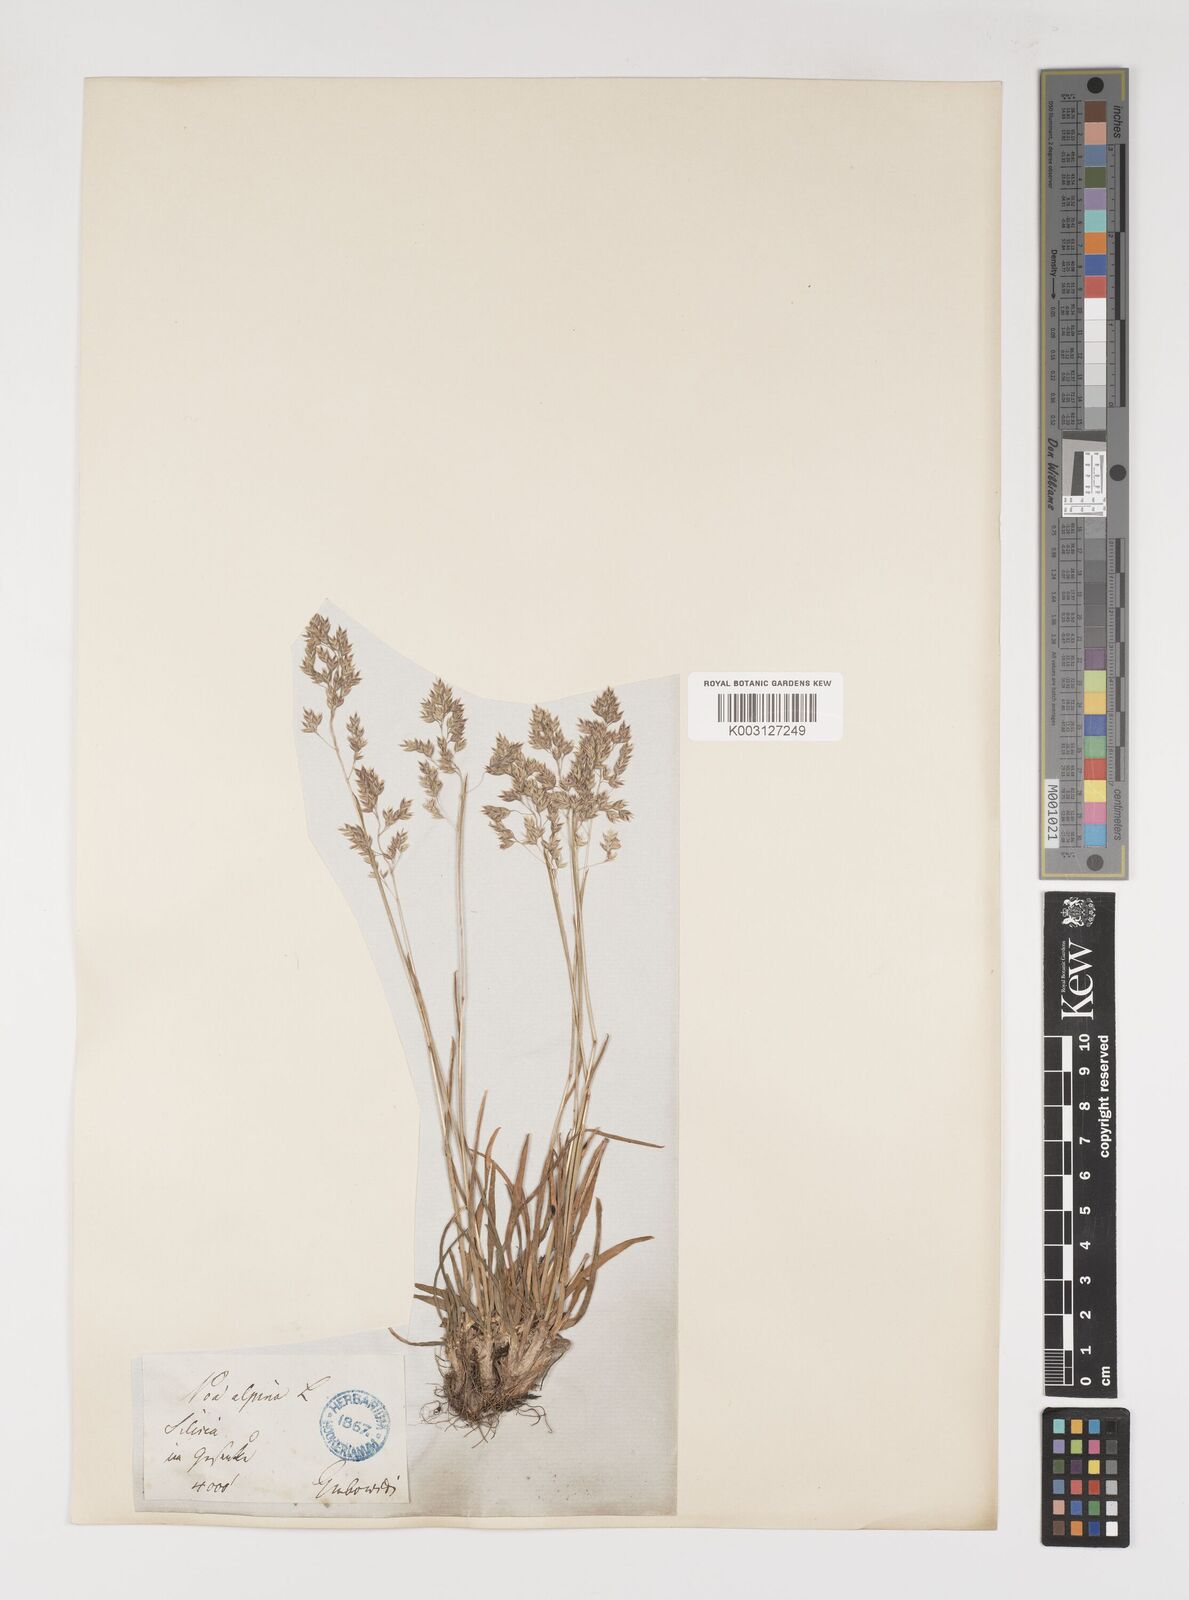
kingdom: Plantae
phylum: Tracheophyta
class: Liliopsida
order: Poales
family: Poaceae
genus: Poa
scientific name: Poa alpina
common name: Alpine bluegrass
